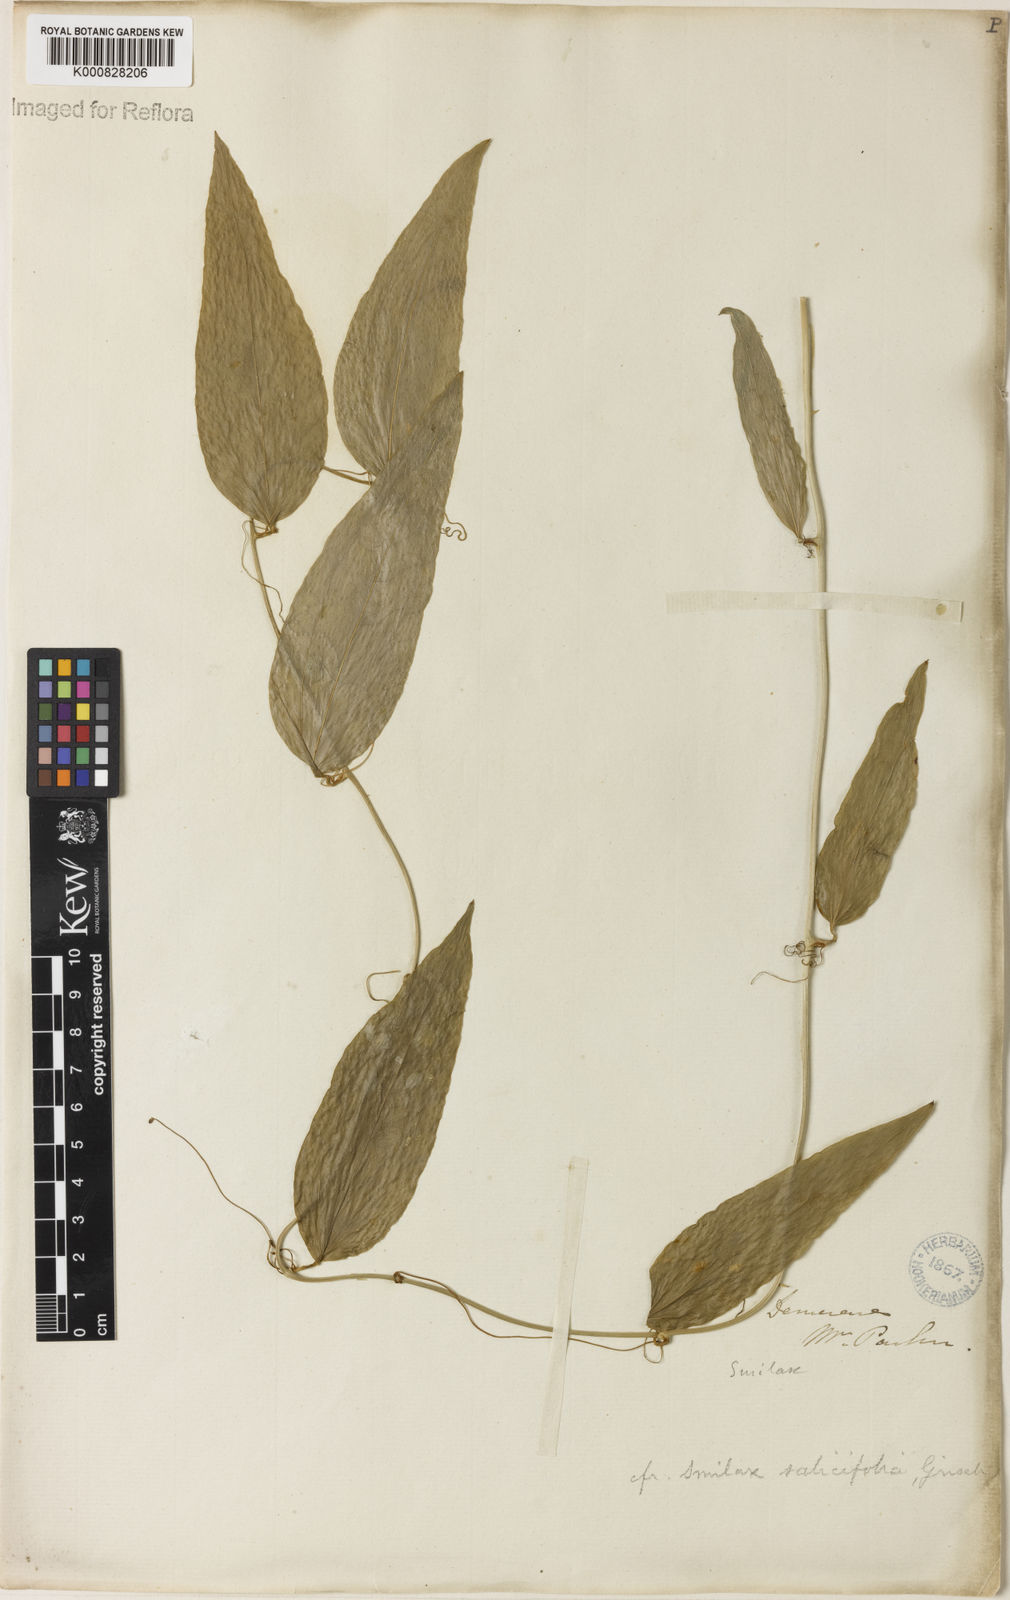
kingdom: Plantae
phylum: Tracheophyta
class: Liliopsida
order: Liliales
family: Smilacaceae
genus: Smilax
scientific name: Smilax salicifolia
